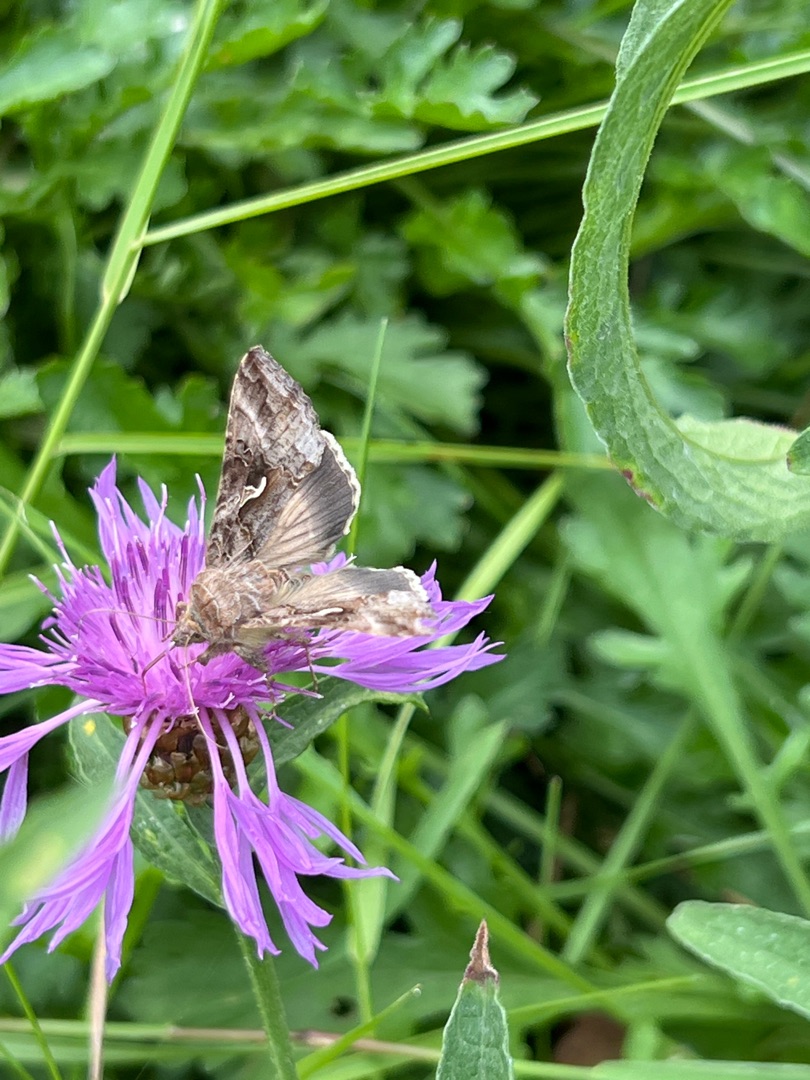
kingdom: Animalia
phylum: Arthropoda
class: Insecta
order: Lepidoptera
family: Noctuidae
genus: Autographa
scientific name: Autographa gamma
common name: Gammaugle
